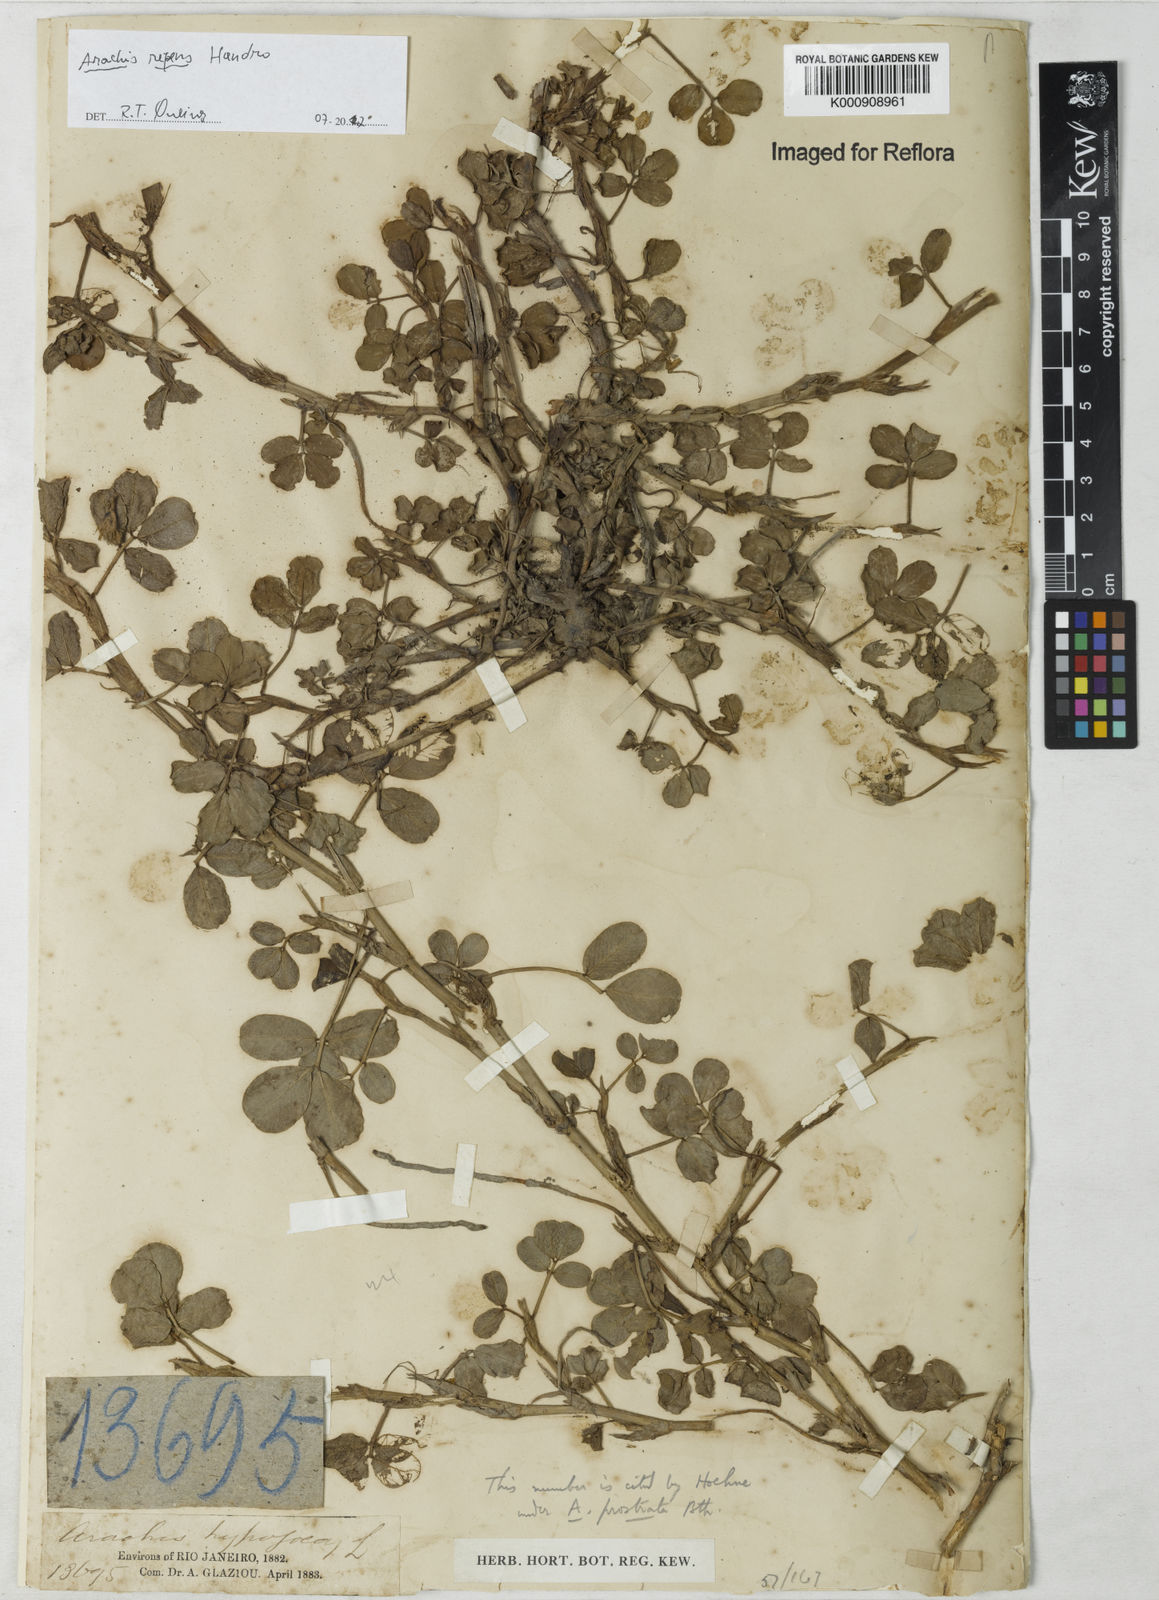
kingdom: Plantae
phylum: Tracheophyta
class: Magnoliopsida
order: Fabales
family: Fabaceae
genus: Arachis
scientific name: Arachis repens
